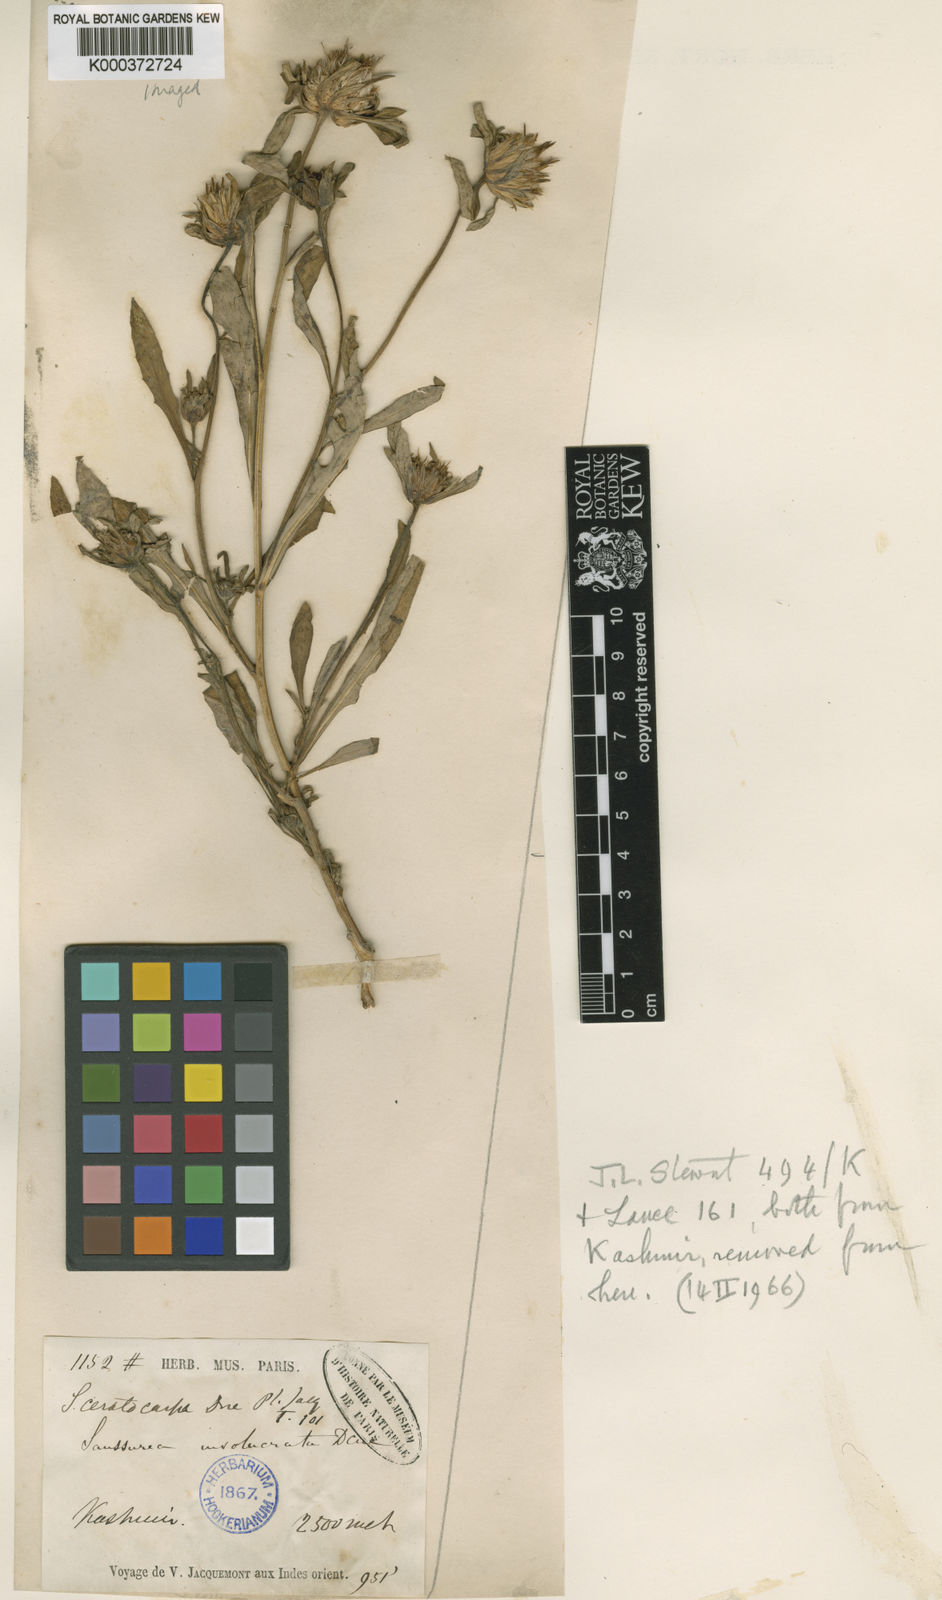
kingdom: Plantae
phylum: Tracheophyta
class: Magnoliopsida
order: Asterales
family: Asteraceae
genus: Jurinea
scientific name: Jurinea ceratocarpa
